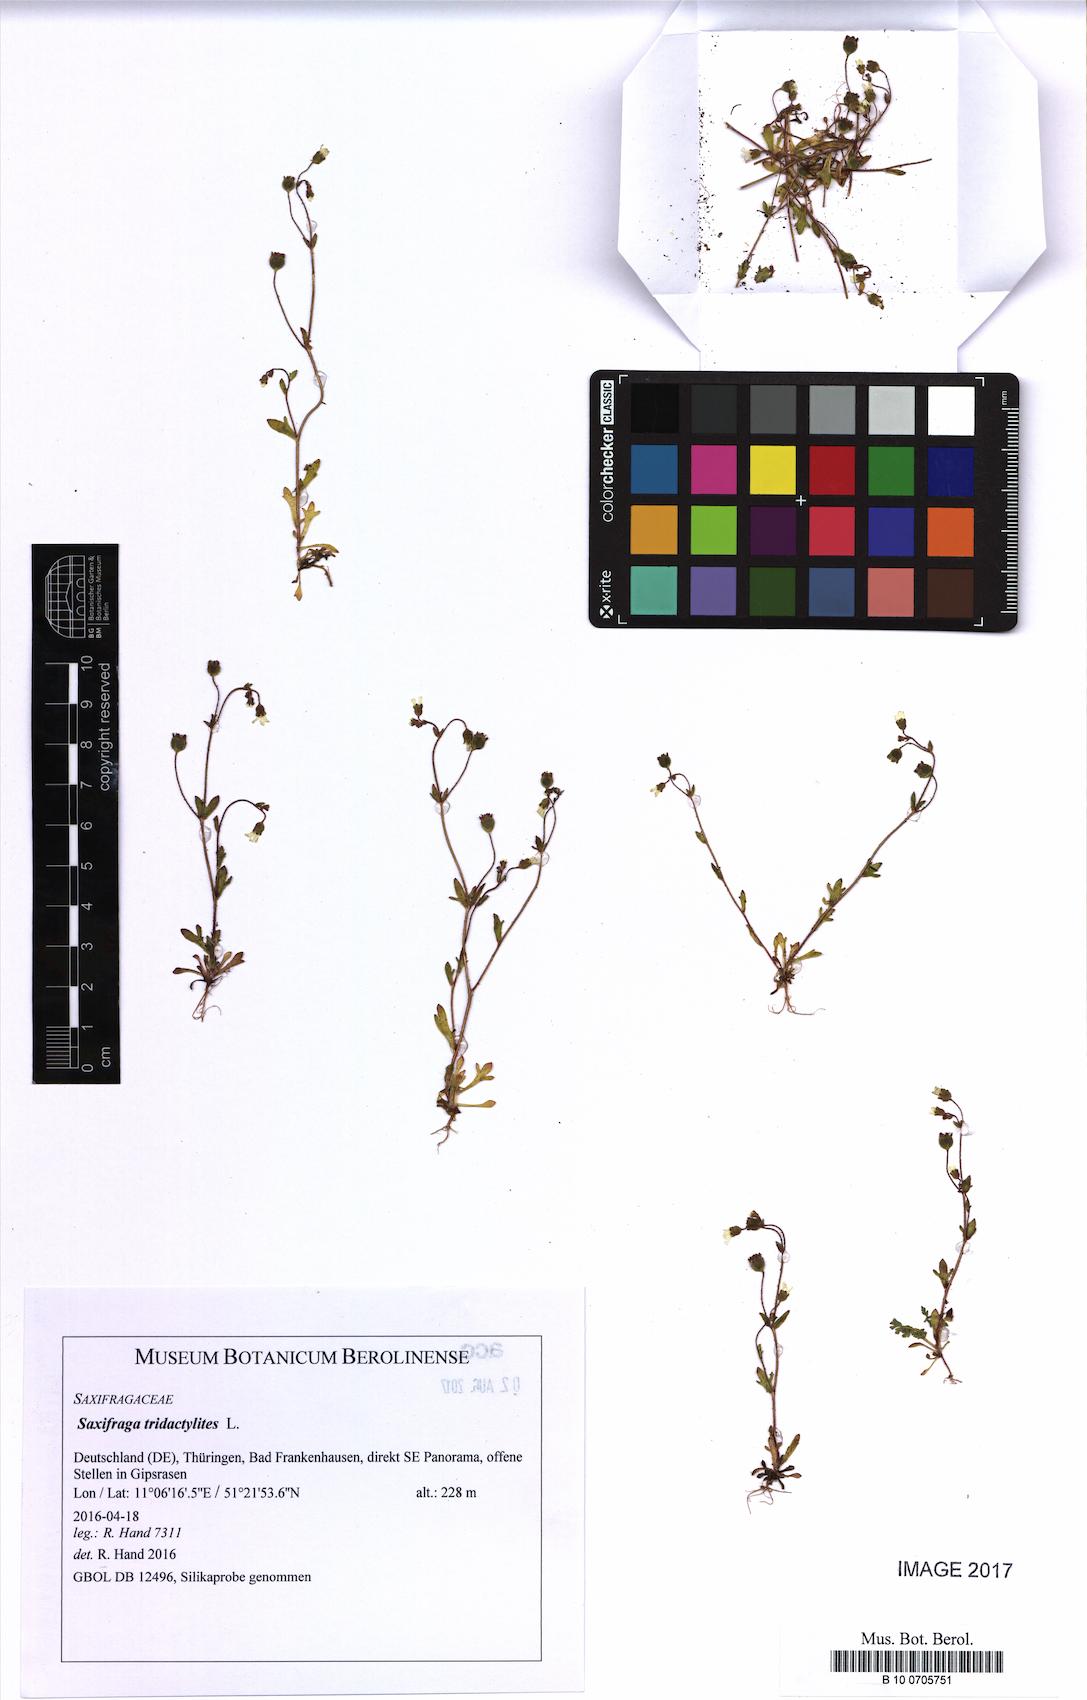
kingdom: Plantae
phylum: Tracheophyta
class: Magnoliopsida
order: Saxifragales
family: Saxifragaceae
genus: Saxifraga
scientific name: Saxifraga tridactylites
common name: Rue-leaved saxifrage
